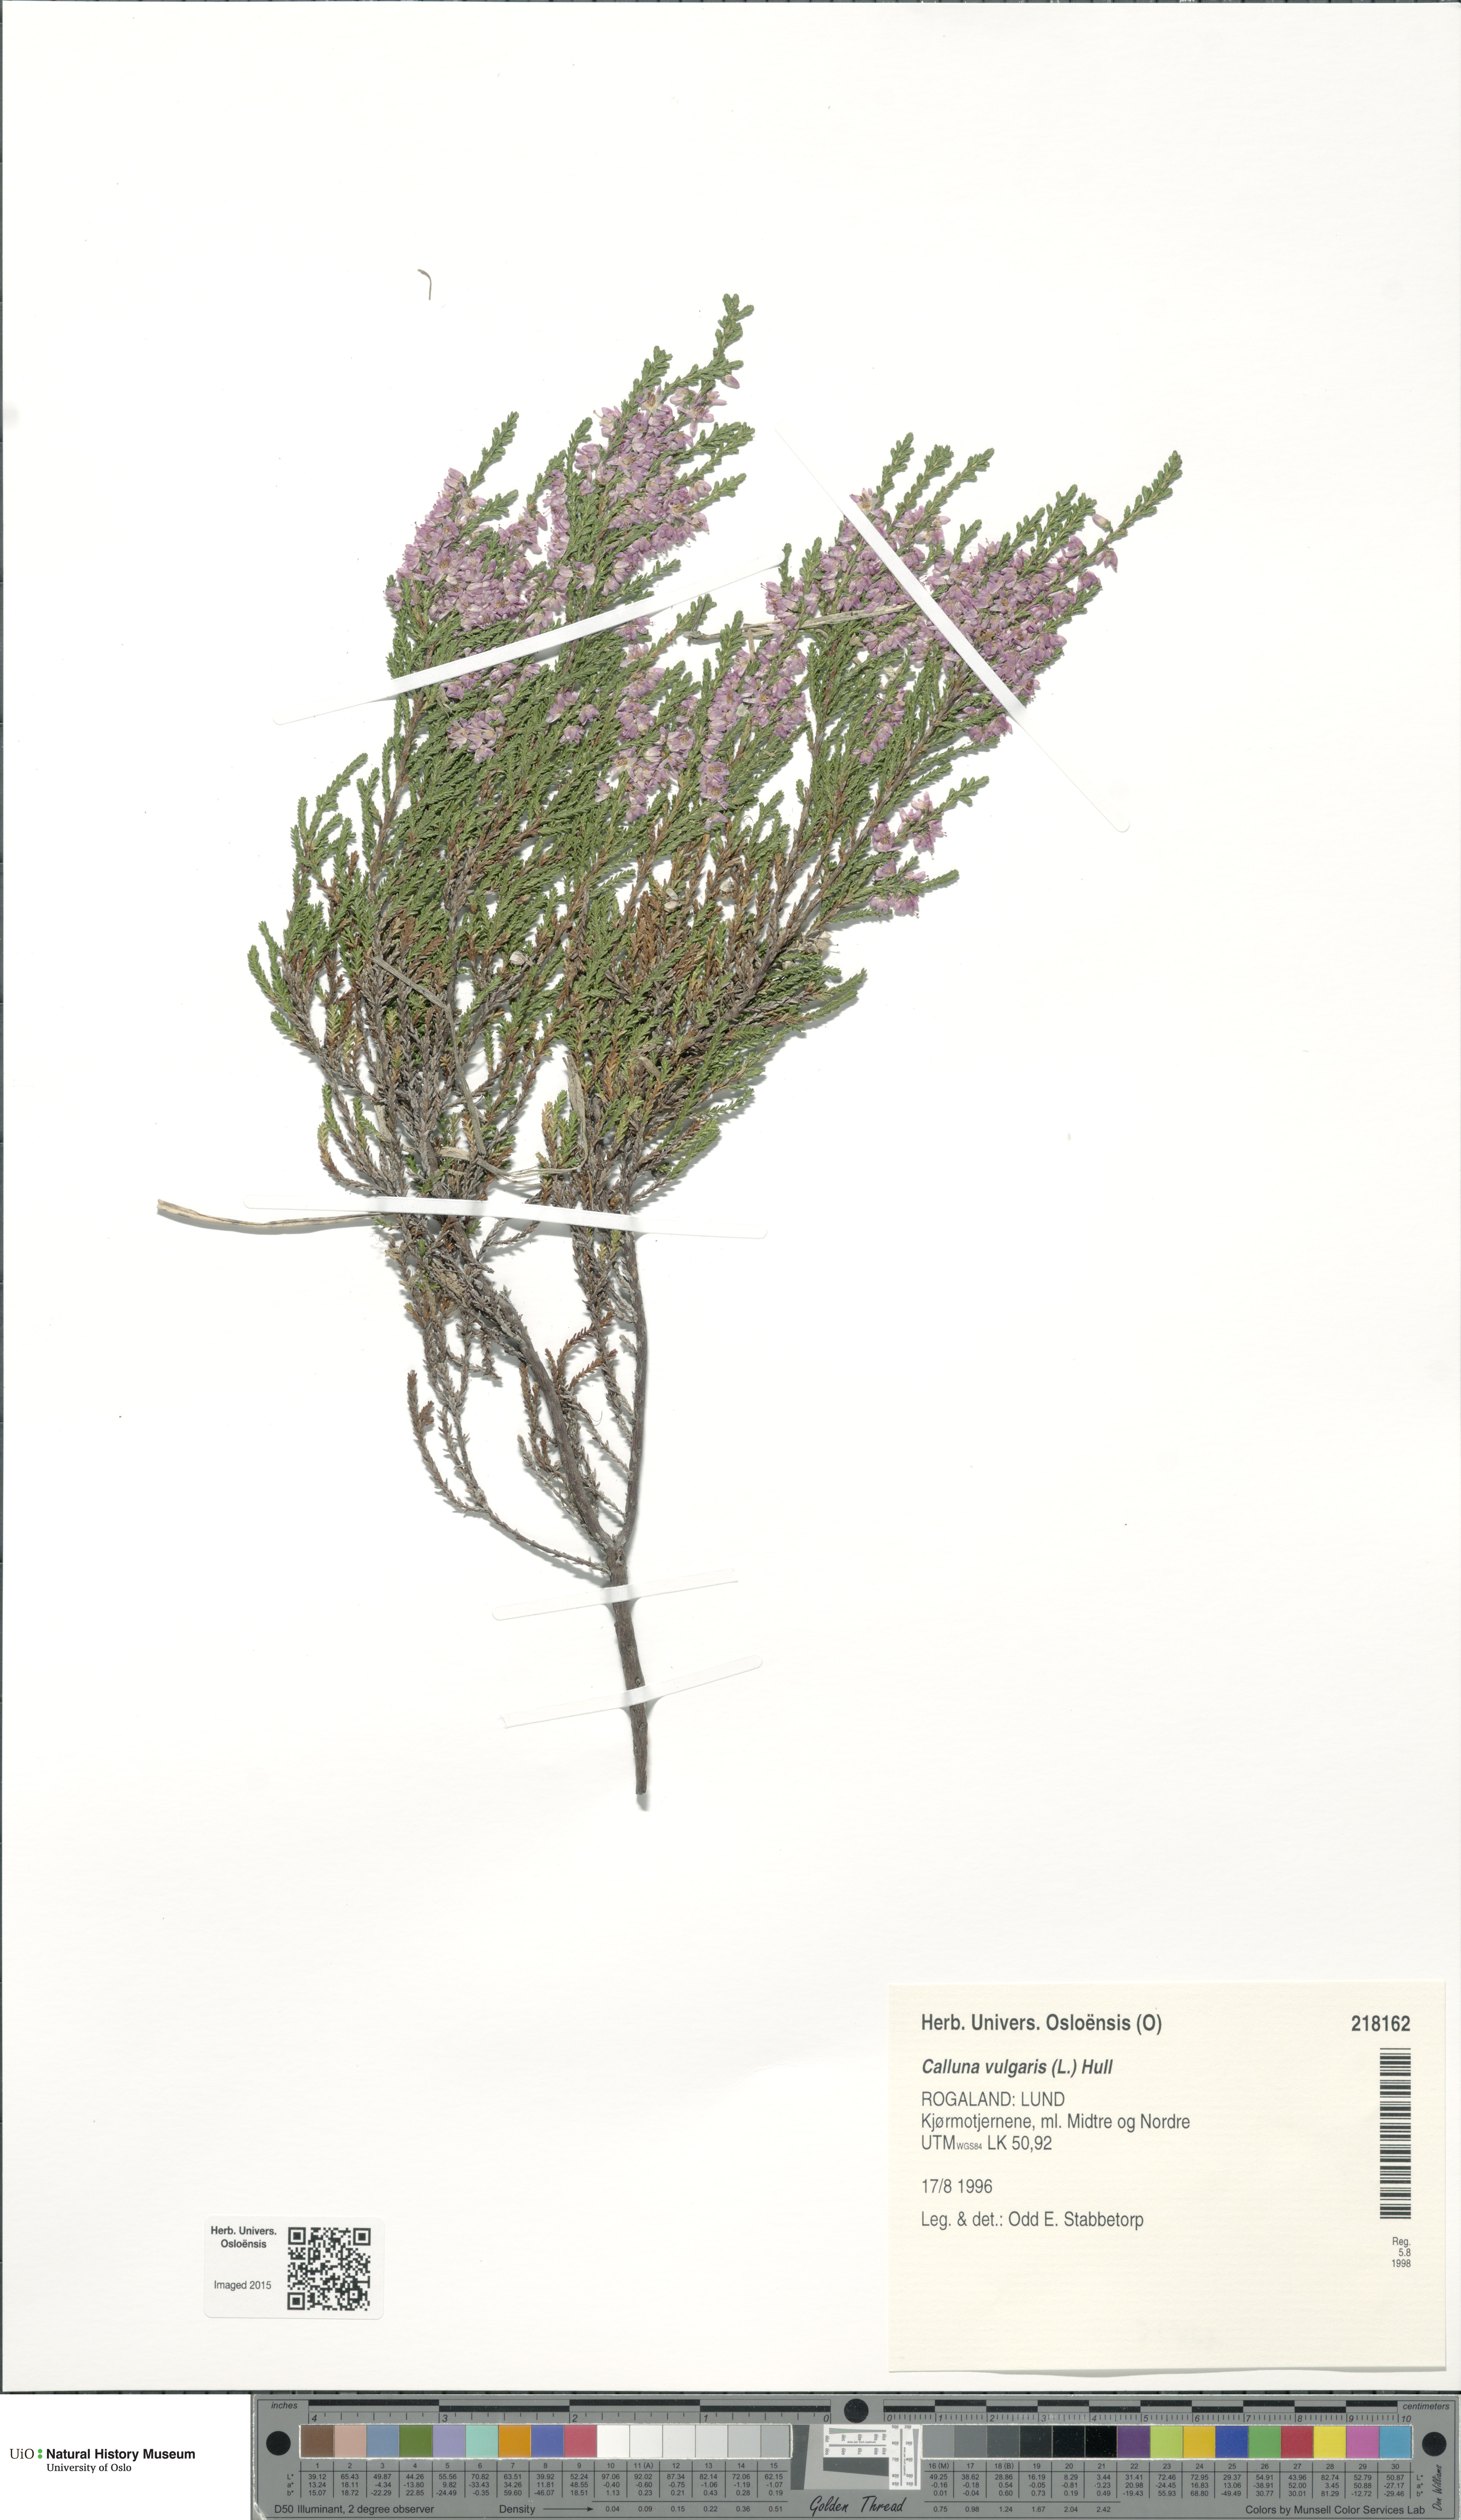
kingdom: Plantae
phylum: Tracheophyta
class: Magnoliopsida
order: Ericales
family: Ericaceae
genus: Calluna
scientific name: Calluna vulgaris
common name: Heather
